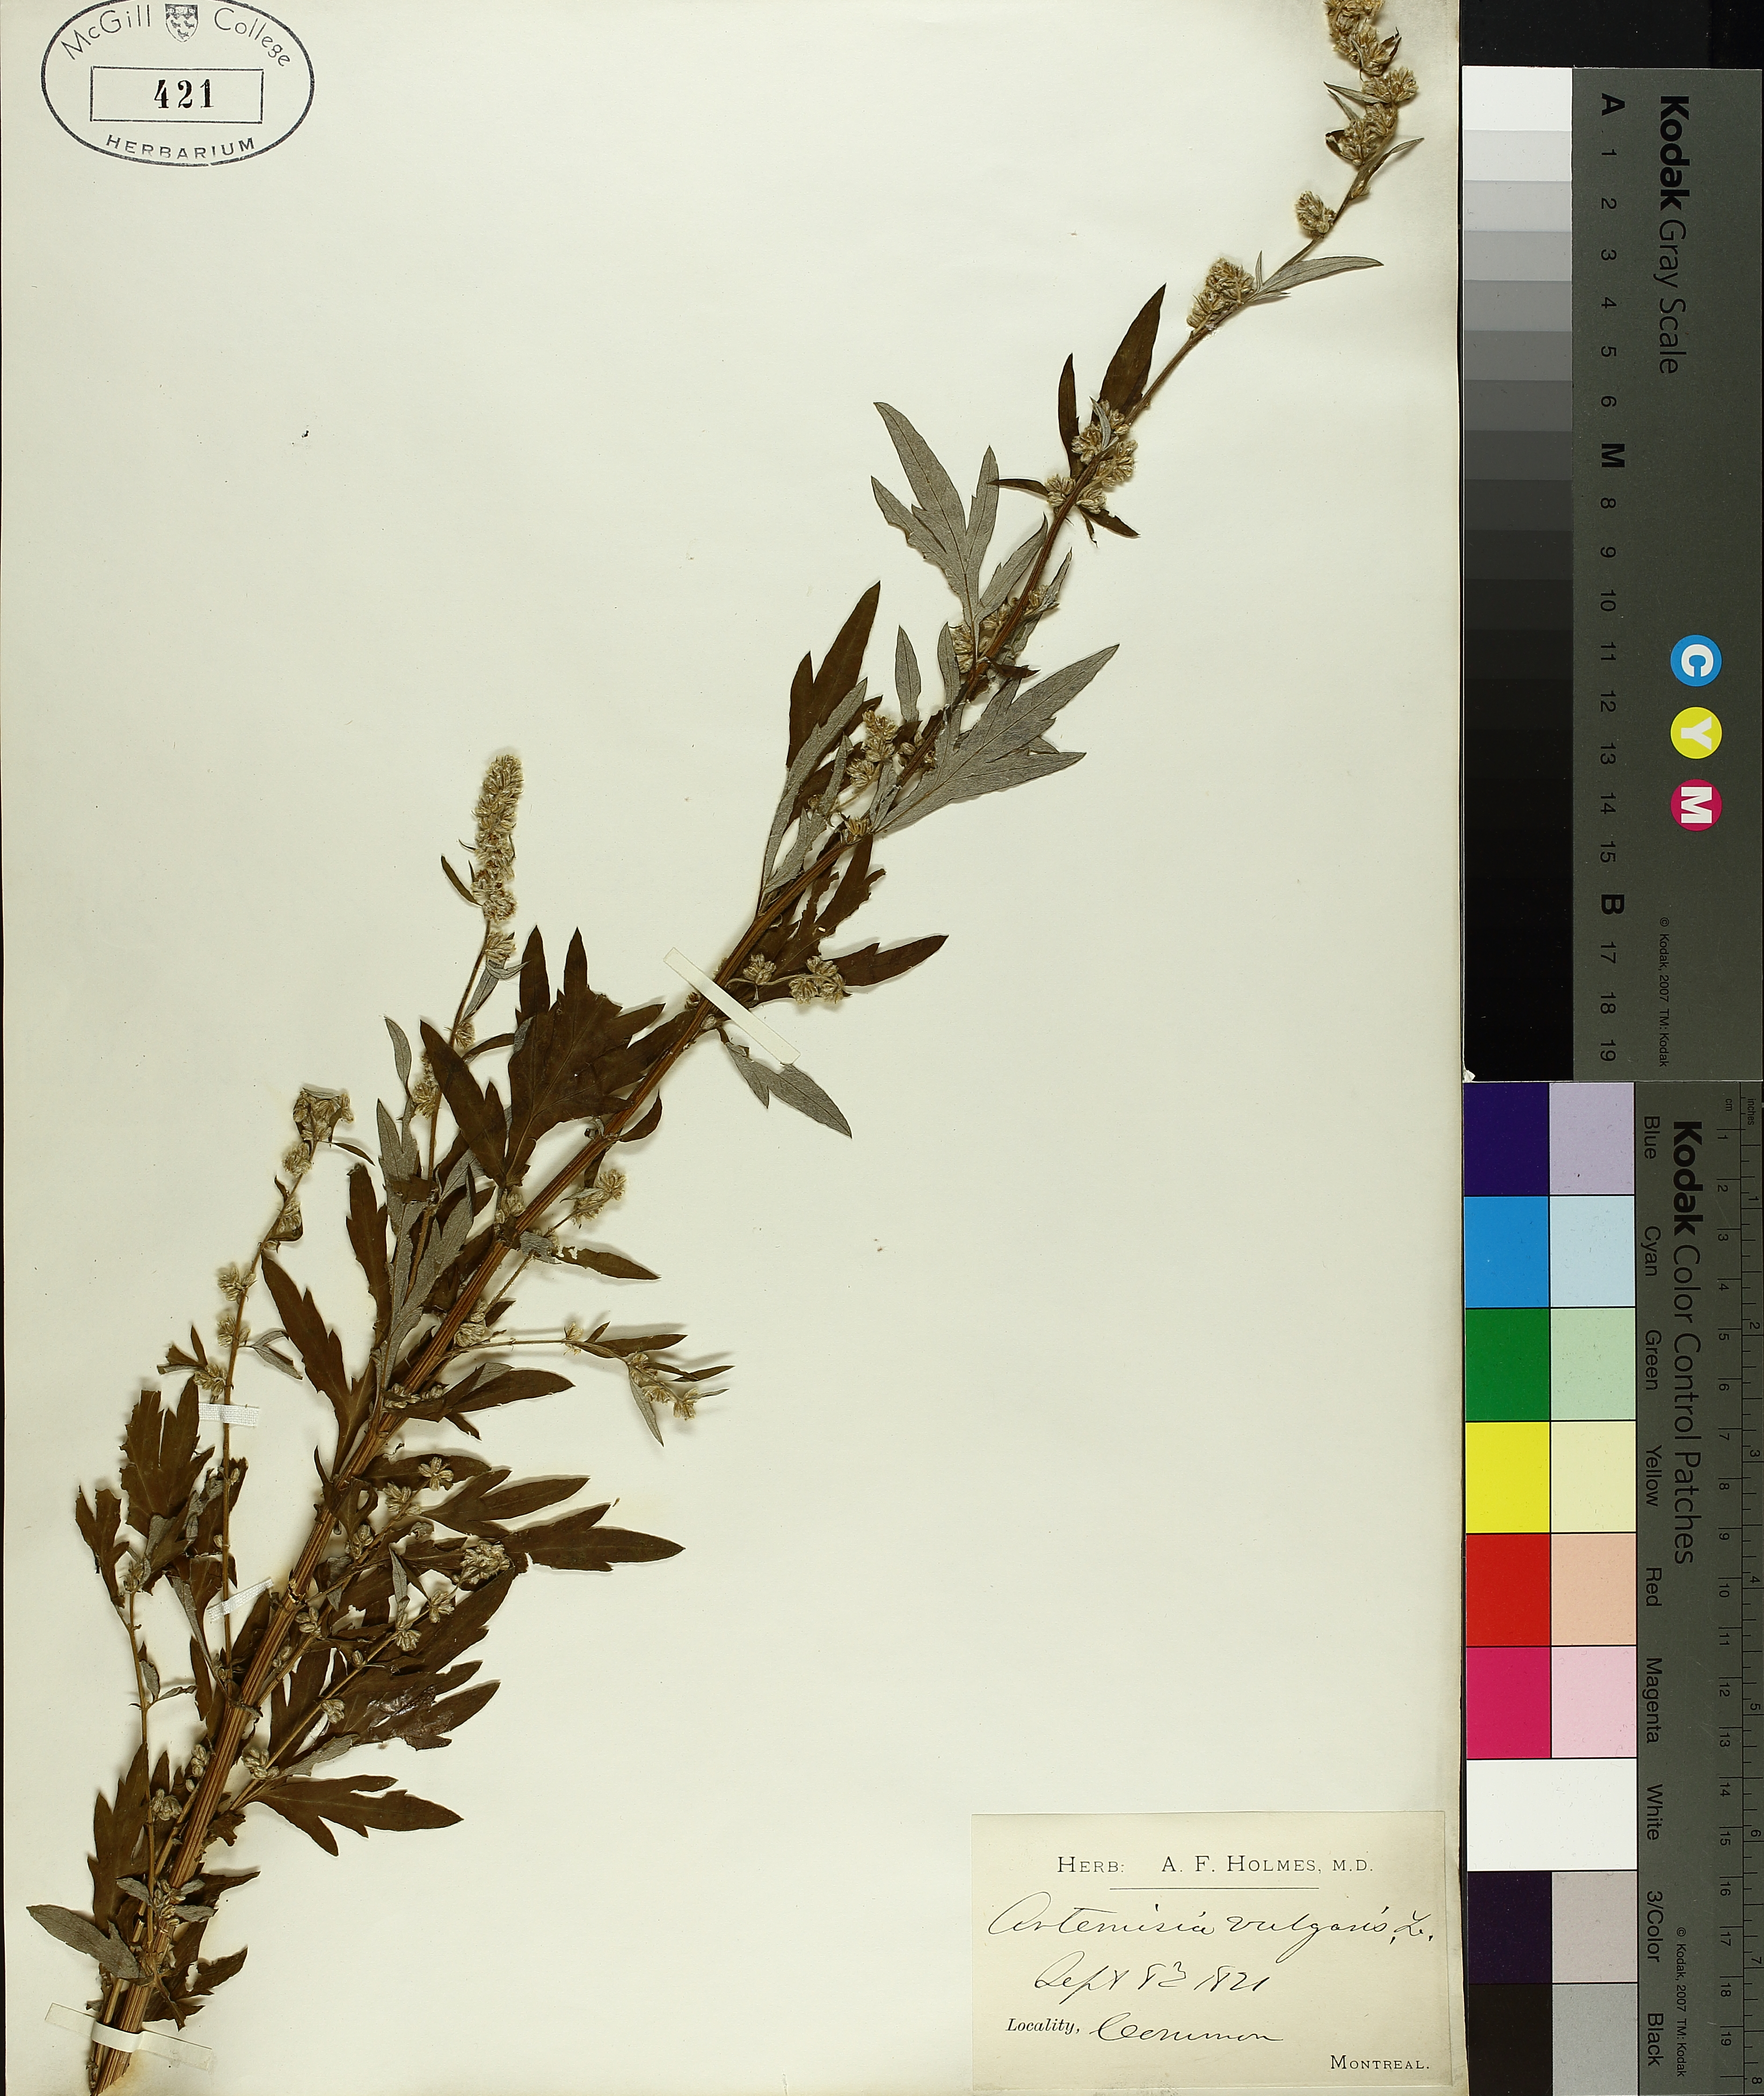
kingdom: Plantae
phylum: Tracheophyta
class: Magnoliopsida
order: Asterales
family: Asteraceae
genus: Symphyotrichum
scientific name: Symphyotrichum puniceum
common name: Bog aster
